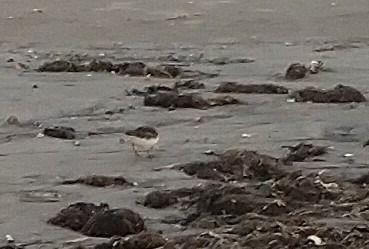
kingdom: Animalia
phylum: Chordata
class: Aves
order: Charadriiformes
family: Scolopacidae
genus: Arenaria
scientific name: Arenaria interpres
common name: Stenvender
